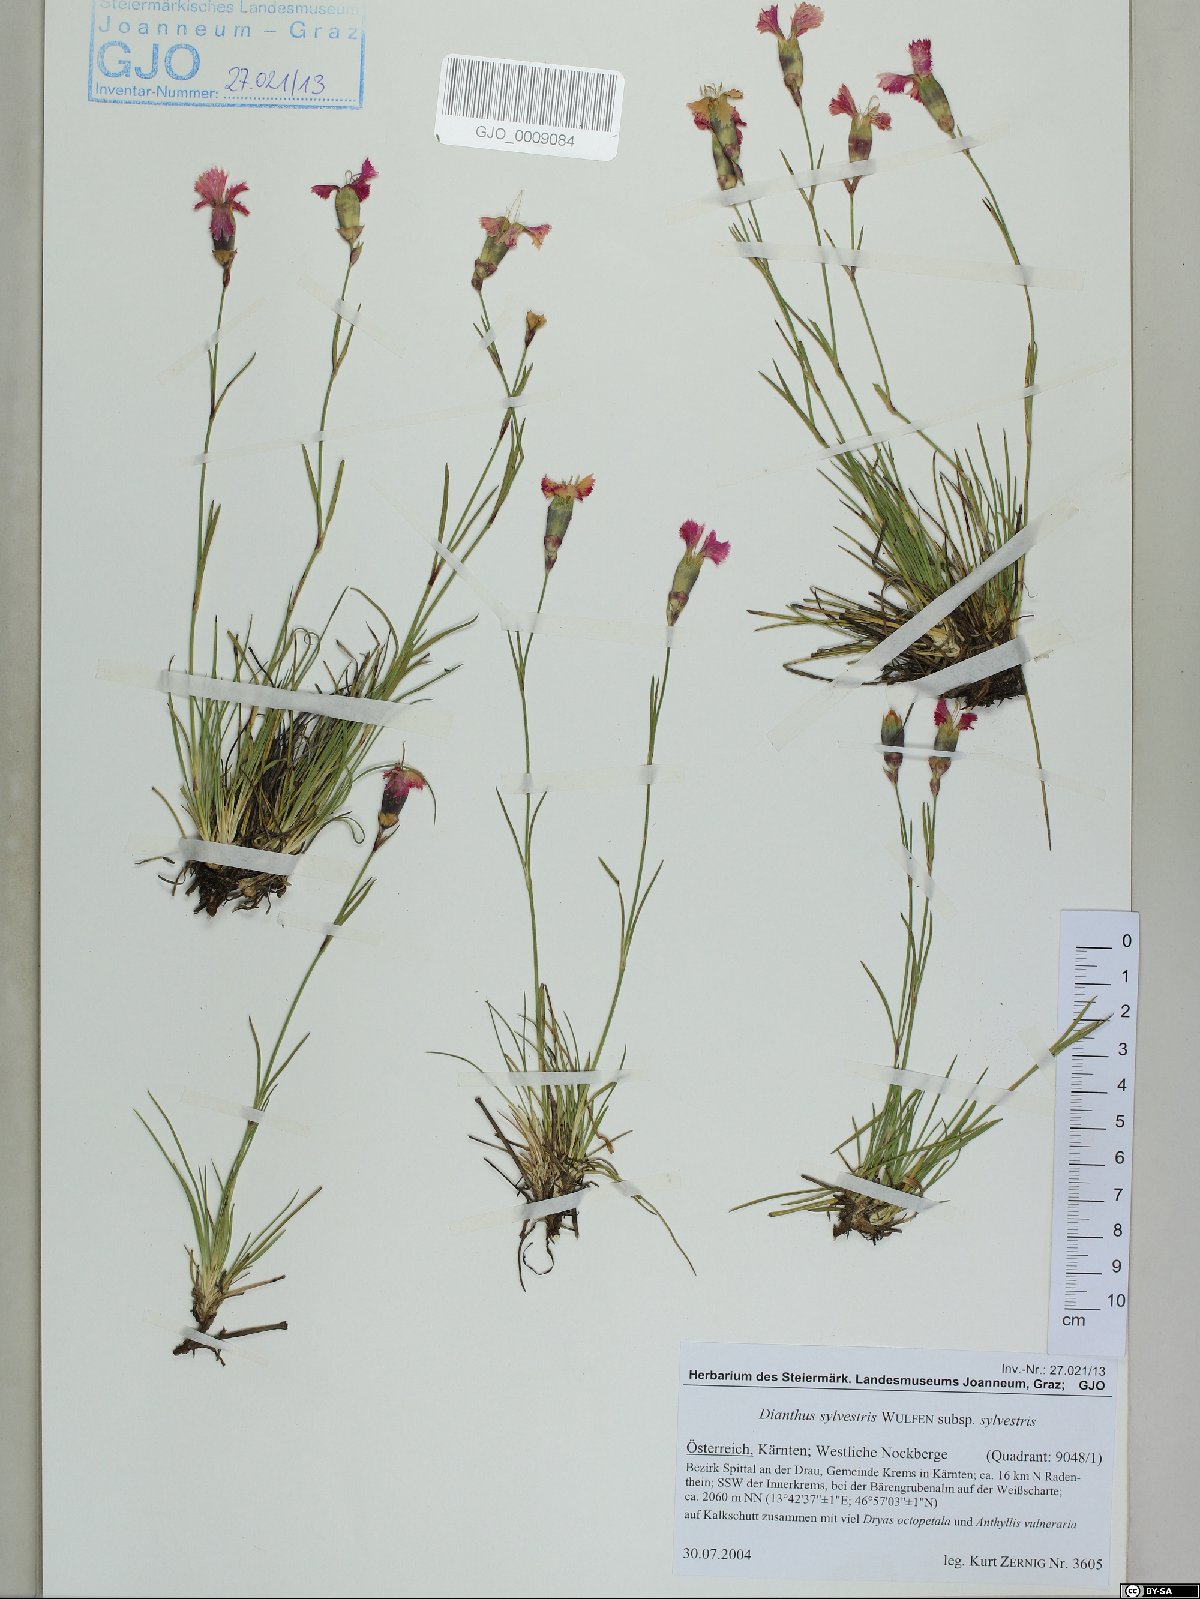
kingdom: Plantae
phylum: Tracheophyta
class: Magnoliopsida
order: Caryophyllales
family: Caryophyllaceae
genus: Dianthus
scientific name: Dianthus sylvestris
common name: Wood pink
